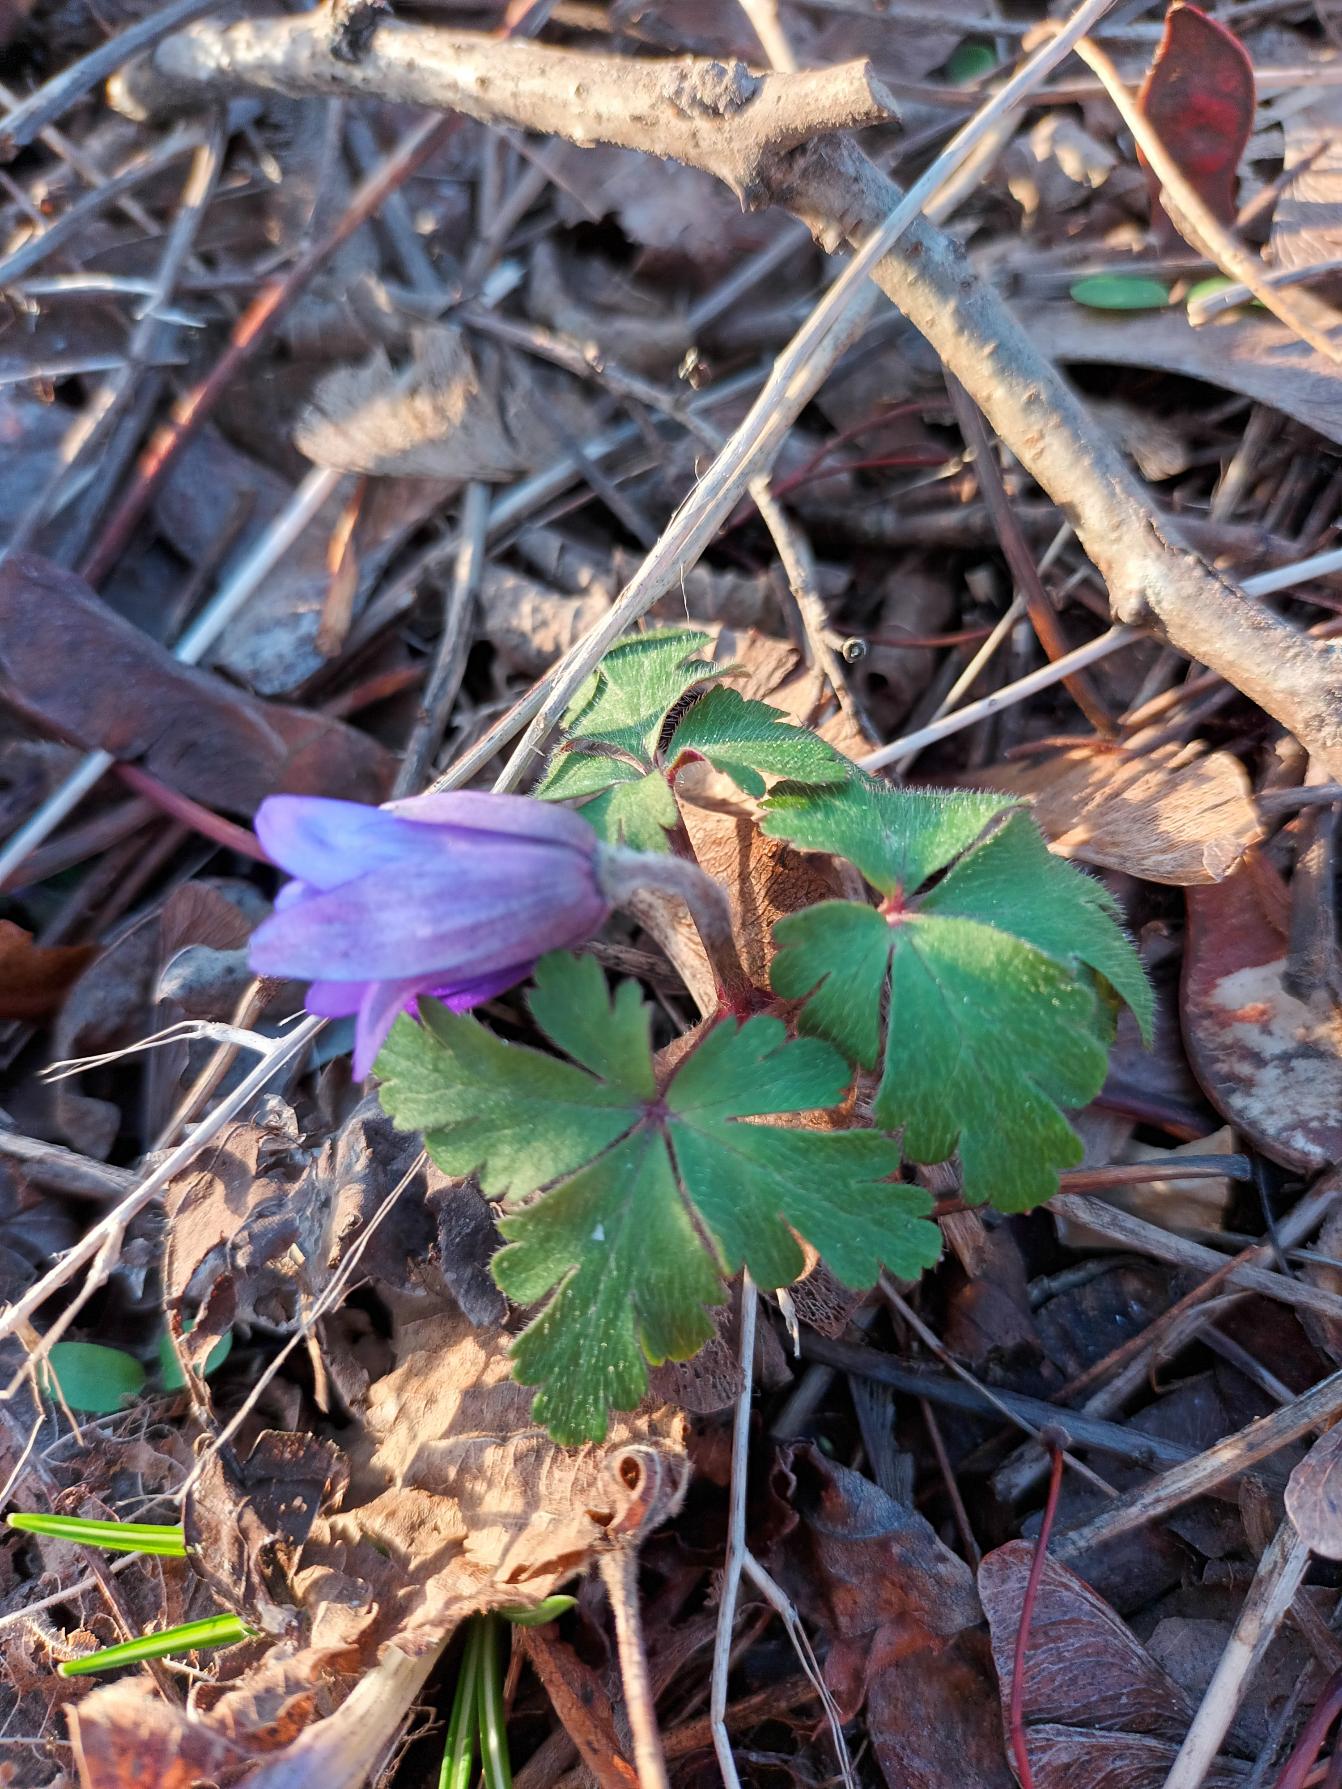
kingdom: Plantae
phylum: Tracheophyta
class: Magnoliopsida
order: Ranunculales
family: Ranunculaceae
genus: Anemone
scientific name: Anemone blanda
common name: Balkan-anemone
